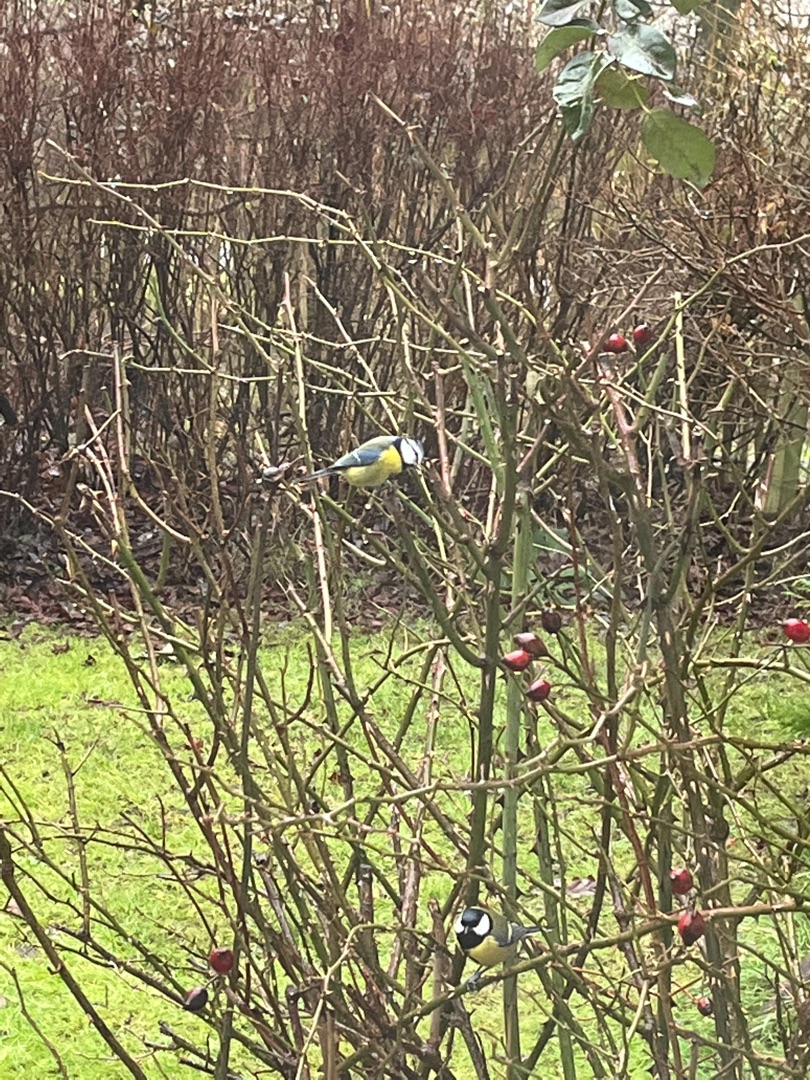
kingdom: Animalia
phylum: Chordata
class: Aves
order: Passeriformes
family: Paridae
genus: Cyanistes
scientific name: Cyanistes caeruleus
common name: Blåmejse
